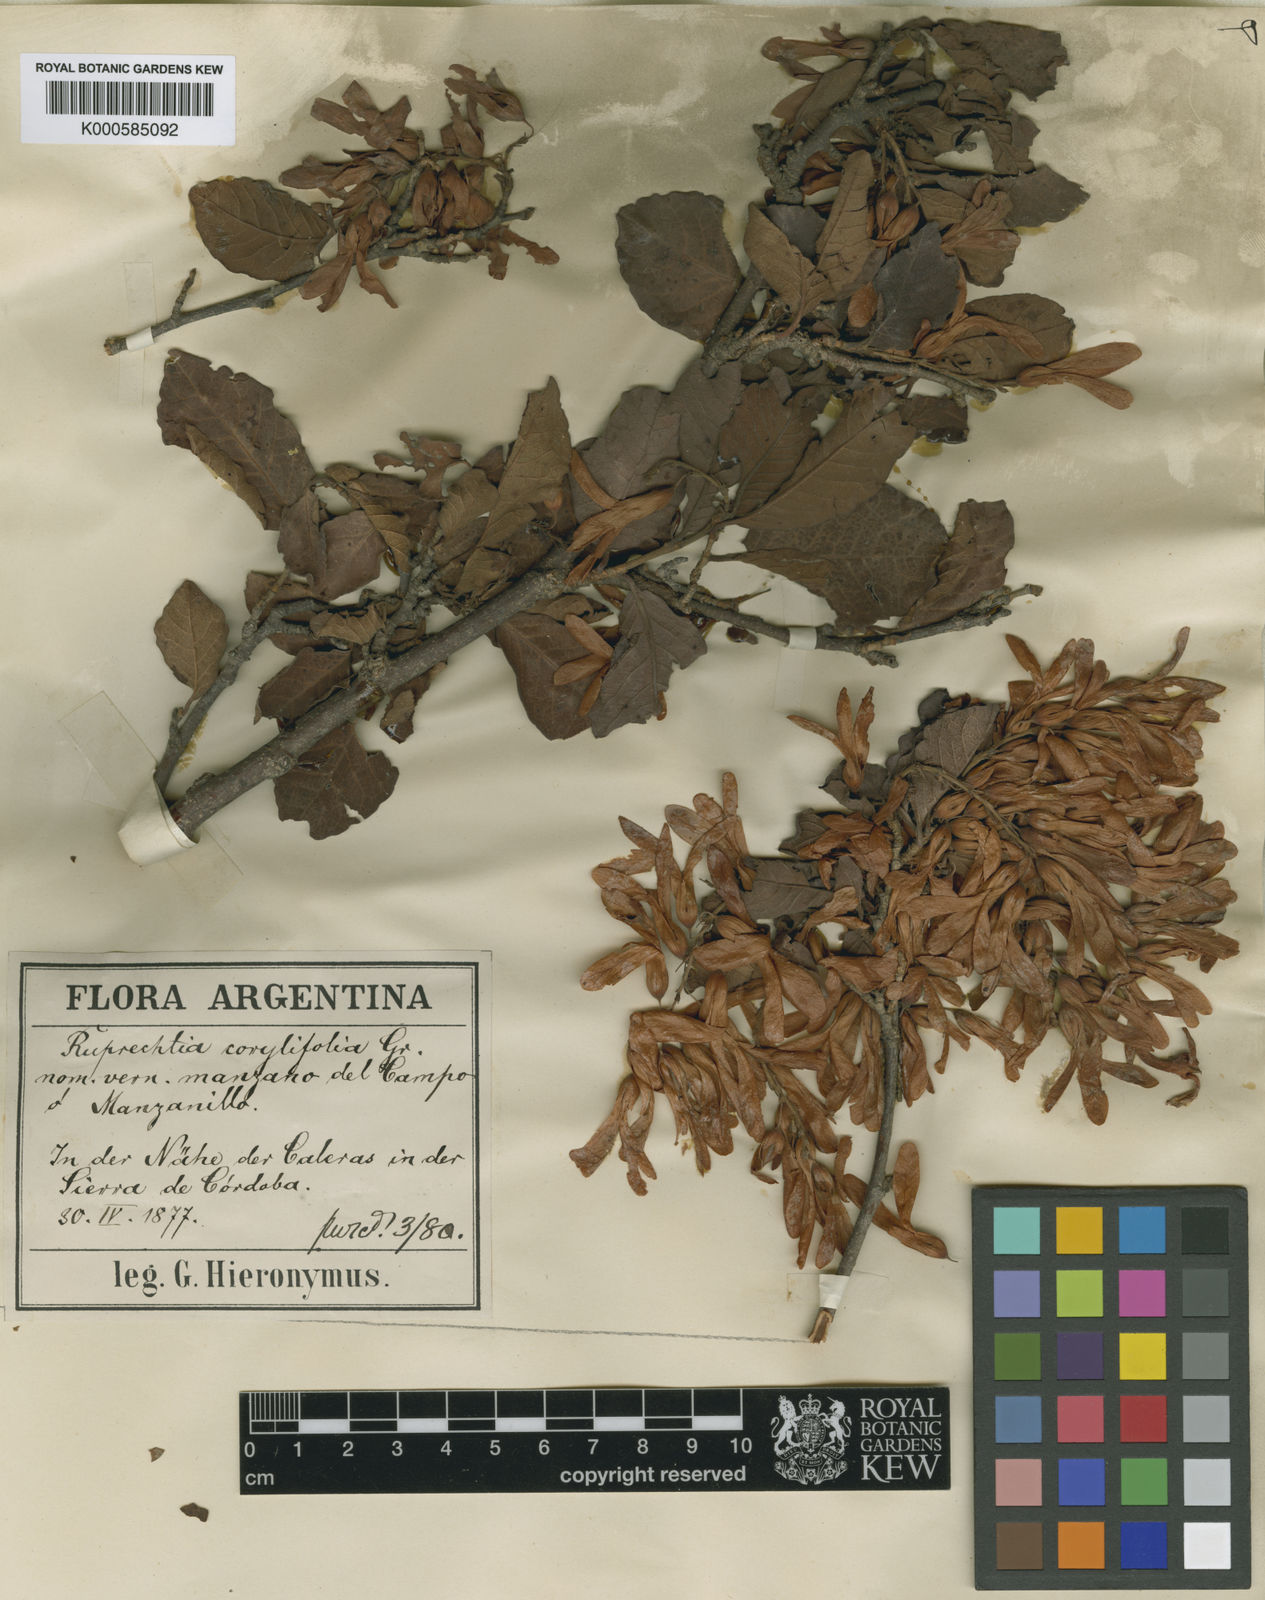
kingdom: Plantae
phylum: Tracheophyta
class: Magnoliopsida
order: Caryophyllales
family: Polygonaceae
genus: Ruprechtia
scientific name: Ruprechtia apetala
